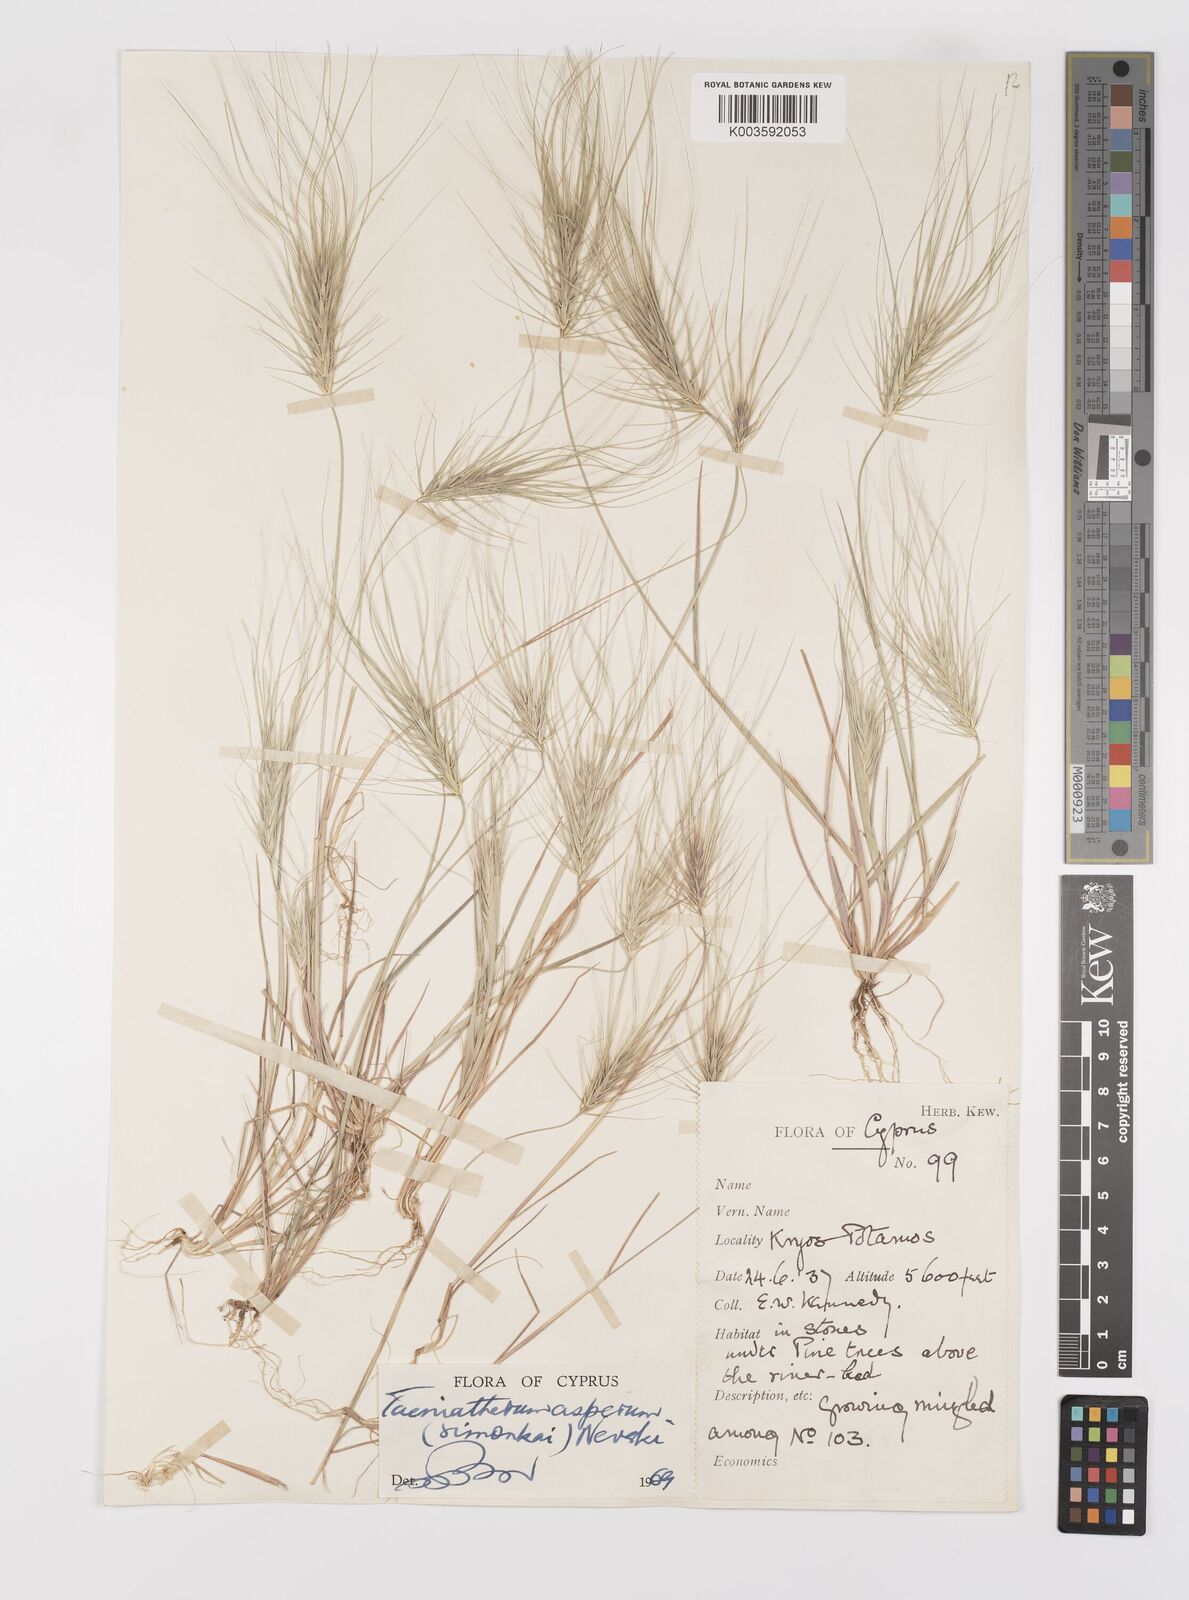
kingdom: Plantae
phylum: Tracheophyta
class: Liliopsida
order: Poales
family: Poaceae
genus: Taeniatherum
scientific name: Taeniatherum caput-medusae
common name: Medusahead
